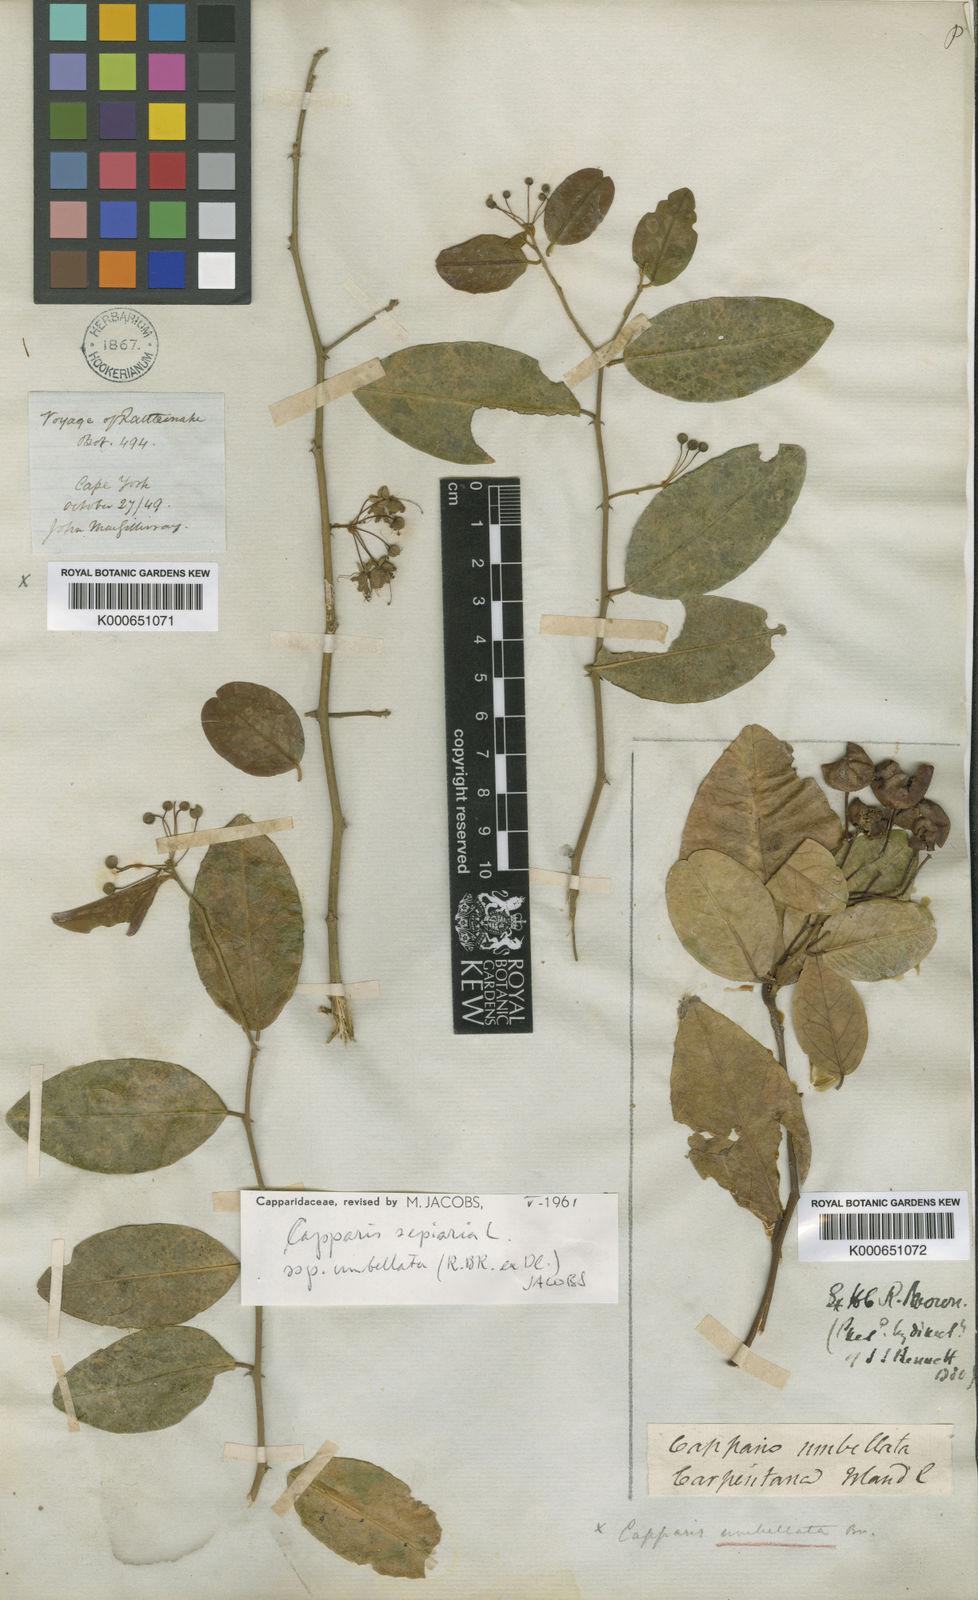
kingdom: Plantae
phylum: Tracheophyta
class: Magnoliopsida
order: Brassicales
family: Capparaceae
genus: Capparis
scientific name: Capparis sepiaria
